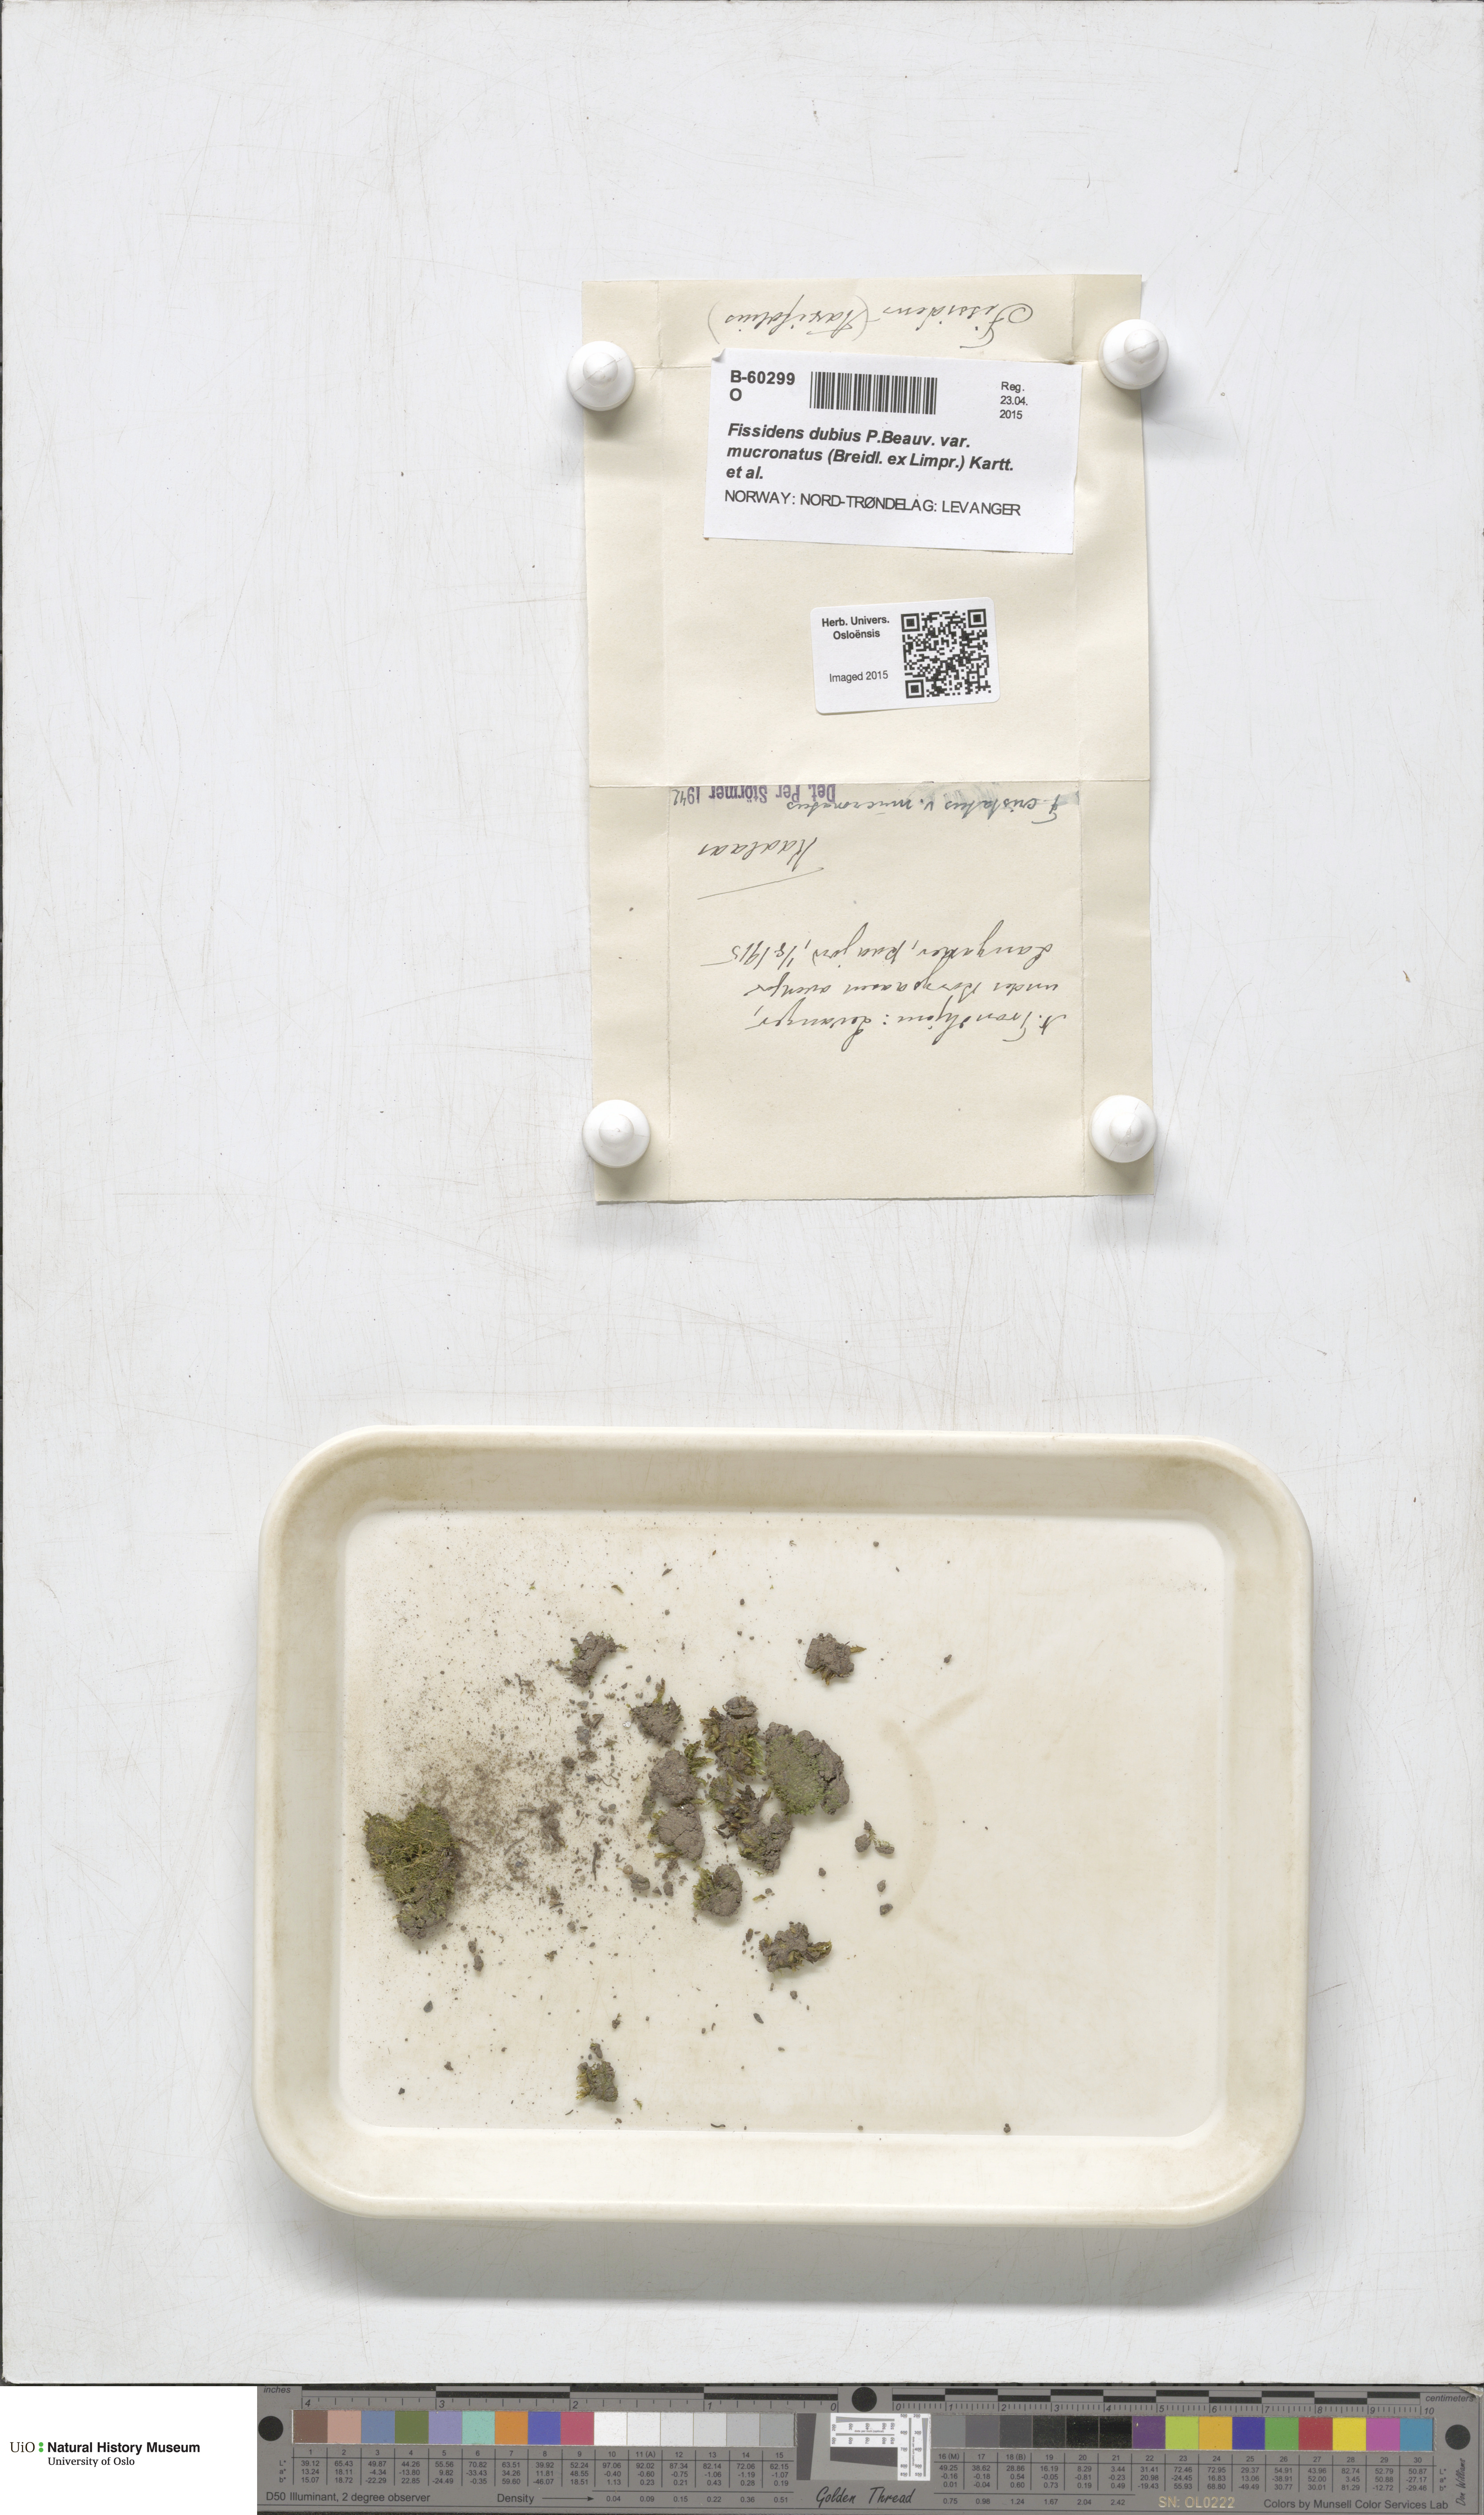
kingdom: Plantae
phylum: Bryophyta
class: Bryopsida
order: Dicranales
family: Fissidentaceae
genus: Fissidens
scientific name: Fissidens dubius
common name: Rock pocket moss
